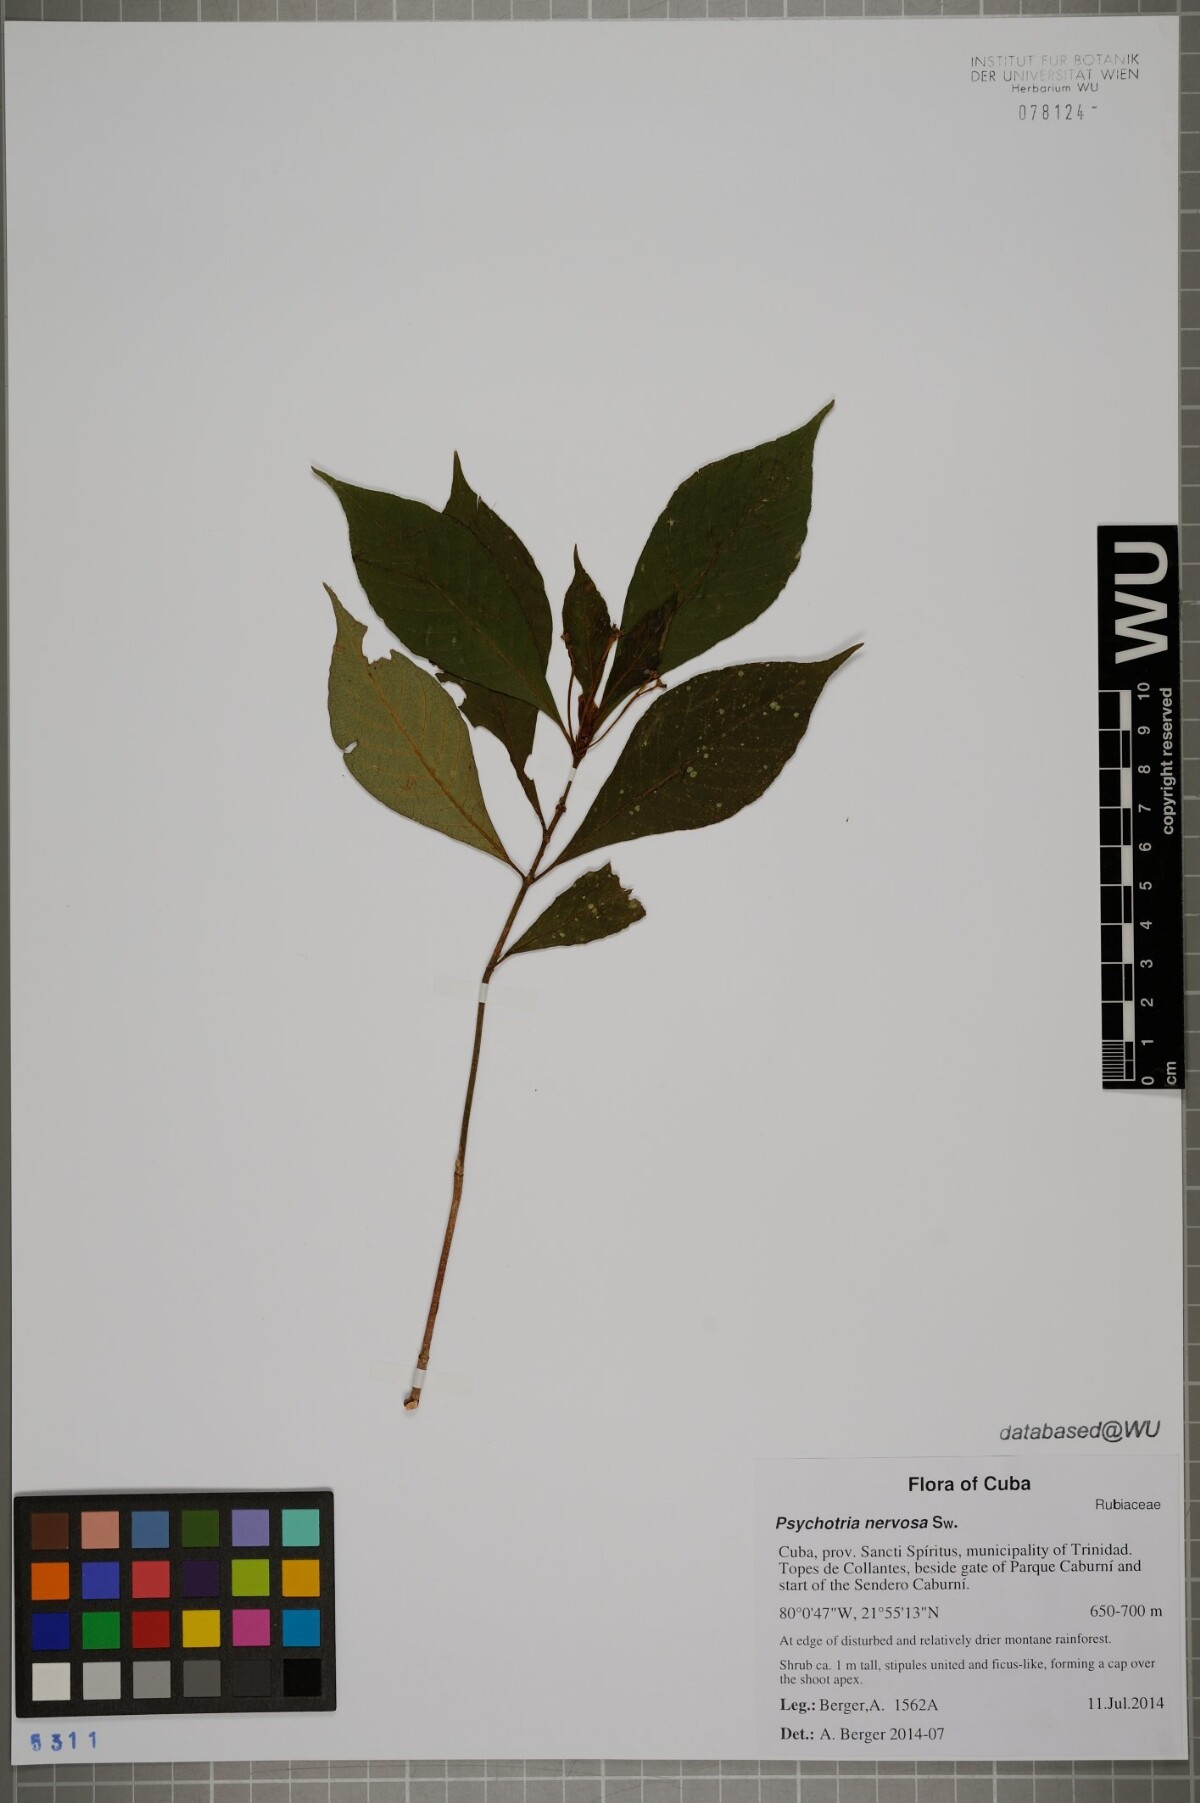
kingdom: Plantae
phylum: Tracheophyta
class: Magnoliopsida
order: Gentianales
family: Rubiaceae
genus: Psychotria
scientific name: Psychotria nervosa
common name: Bastard cankerberry
